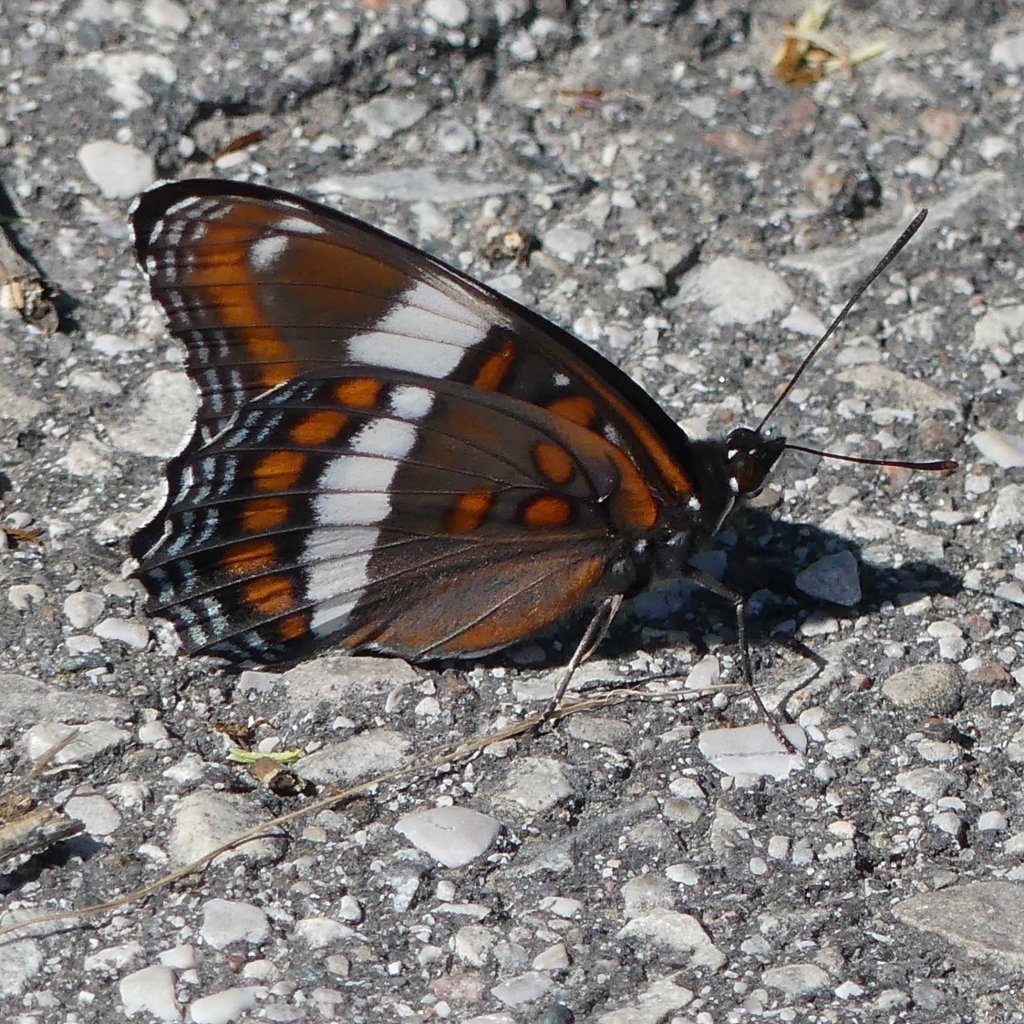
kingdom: Animalia
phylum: Arthropoda
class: Insecta
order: Lepidoptera
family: Nymphalidae
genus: Limenitis
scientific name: Limenitis arthemis
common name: Red-spotted Admiral
